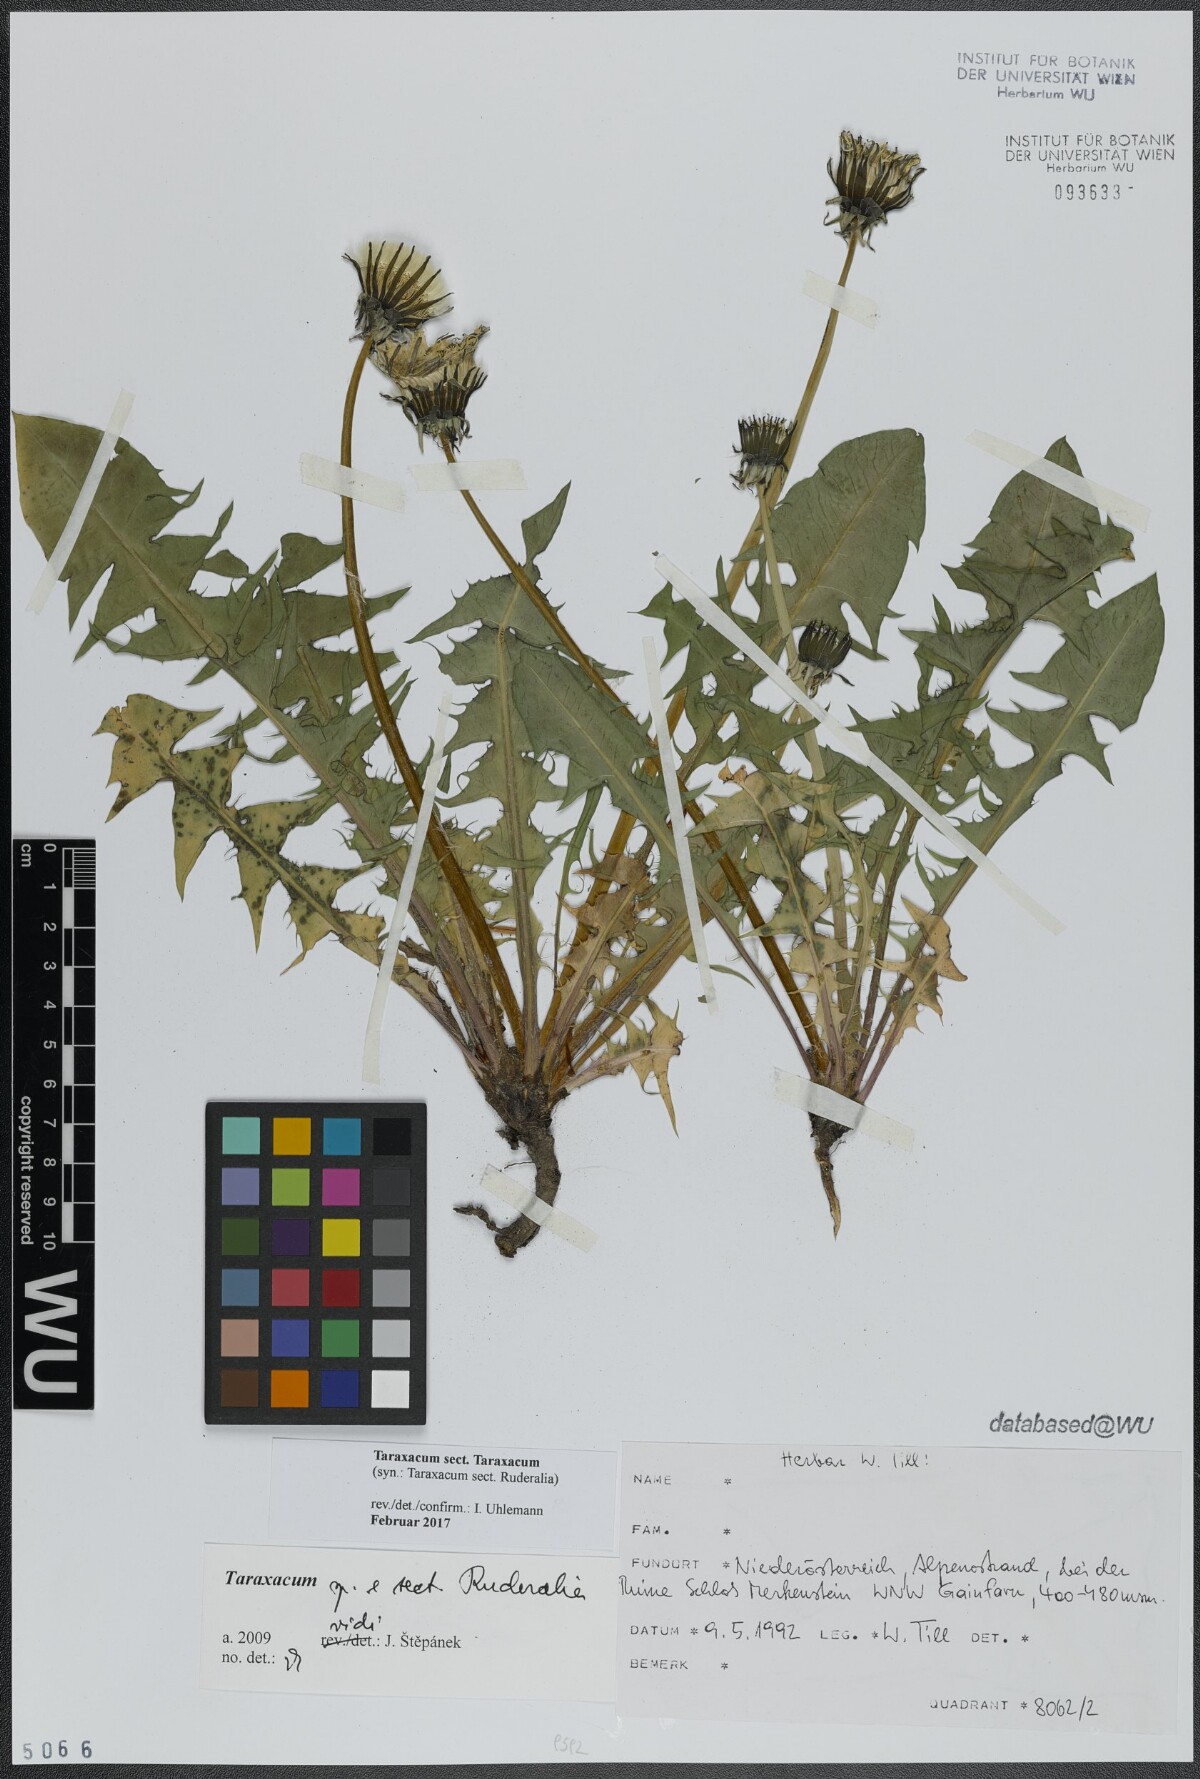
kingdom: Plantae
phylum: Tracheophyta
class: Magnoliopsida
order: Asterales
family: Asteraceae
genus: Taraxacum
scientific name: Taraxacum
